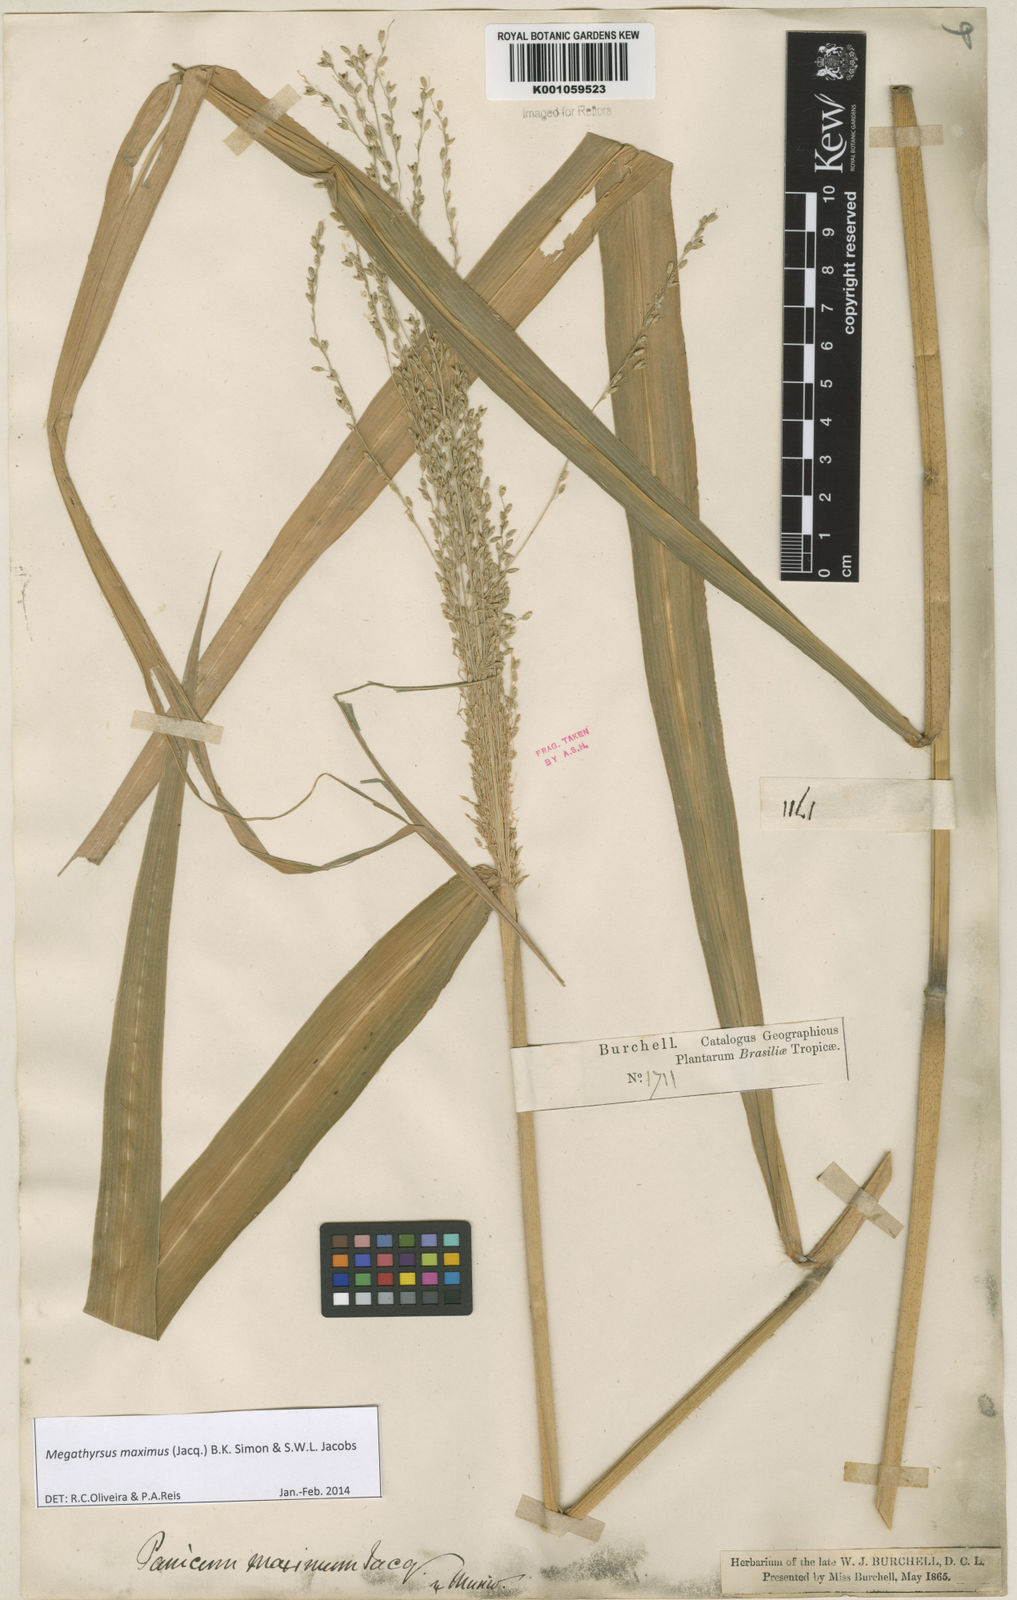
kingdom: Plantae
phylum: Tracheophyta
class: Liliopsida
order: Poales
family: Poaceae
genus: Megathyrsus
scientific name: Megathyrsus maximus
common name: Guineagrass
